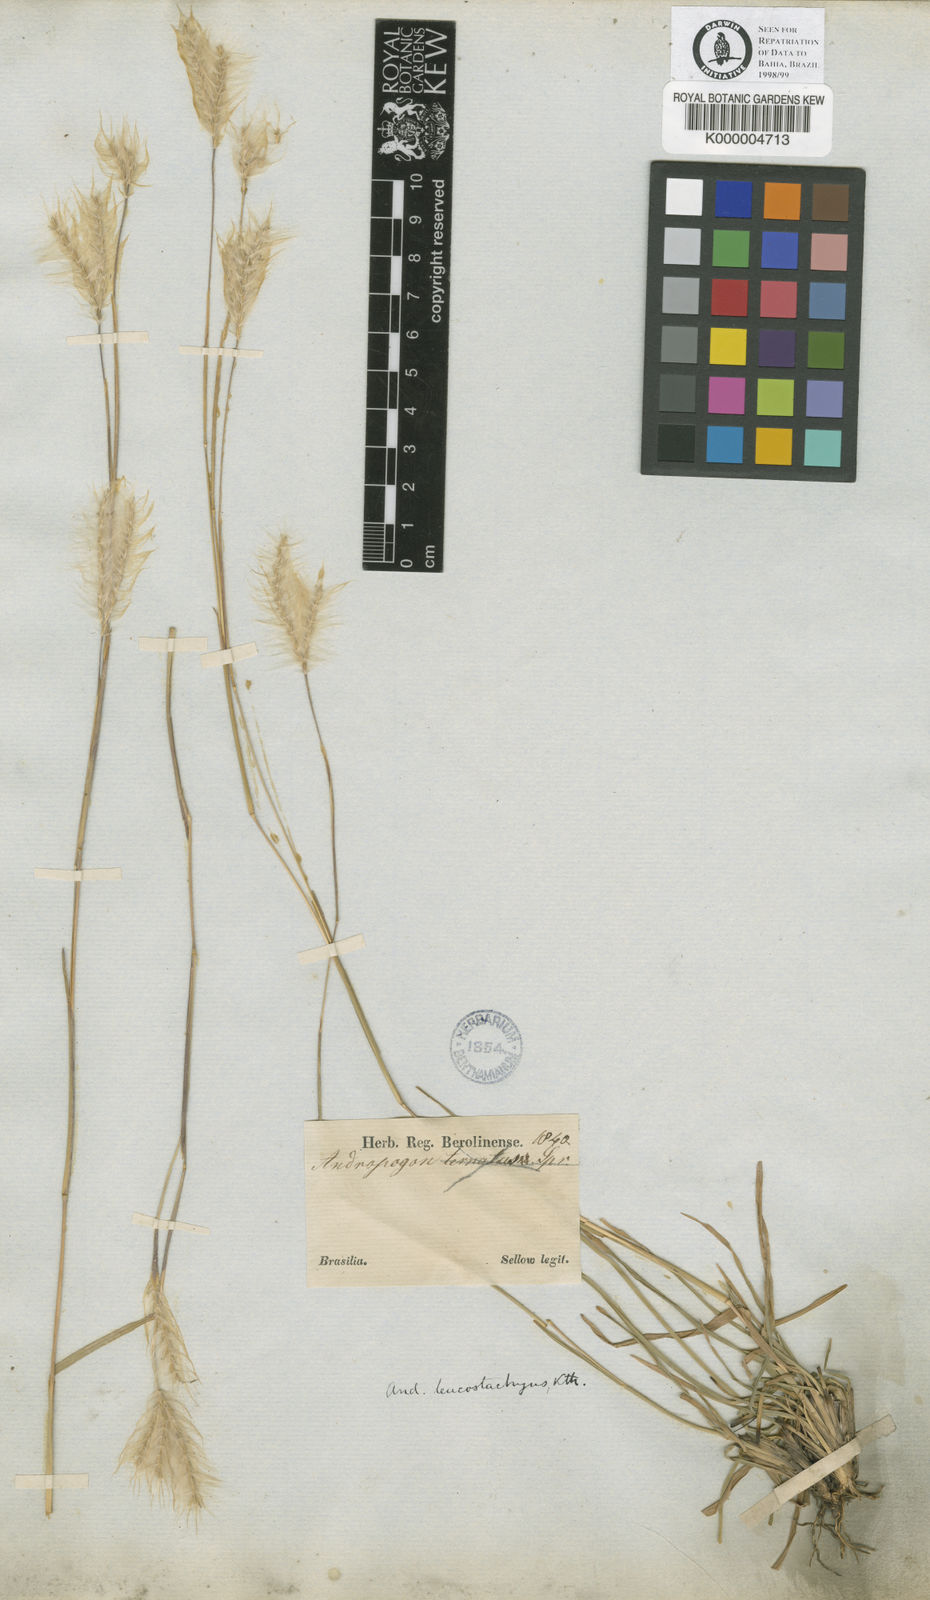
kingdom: Plantae
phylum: Tracheophyta
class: Liliopsida
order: Poales
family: Poaceae
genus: Andropogon
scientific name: Andropogon selloanus
